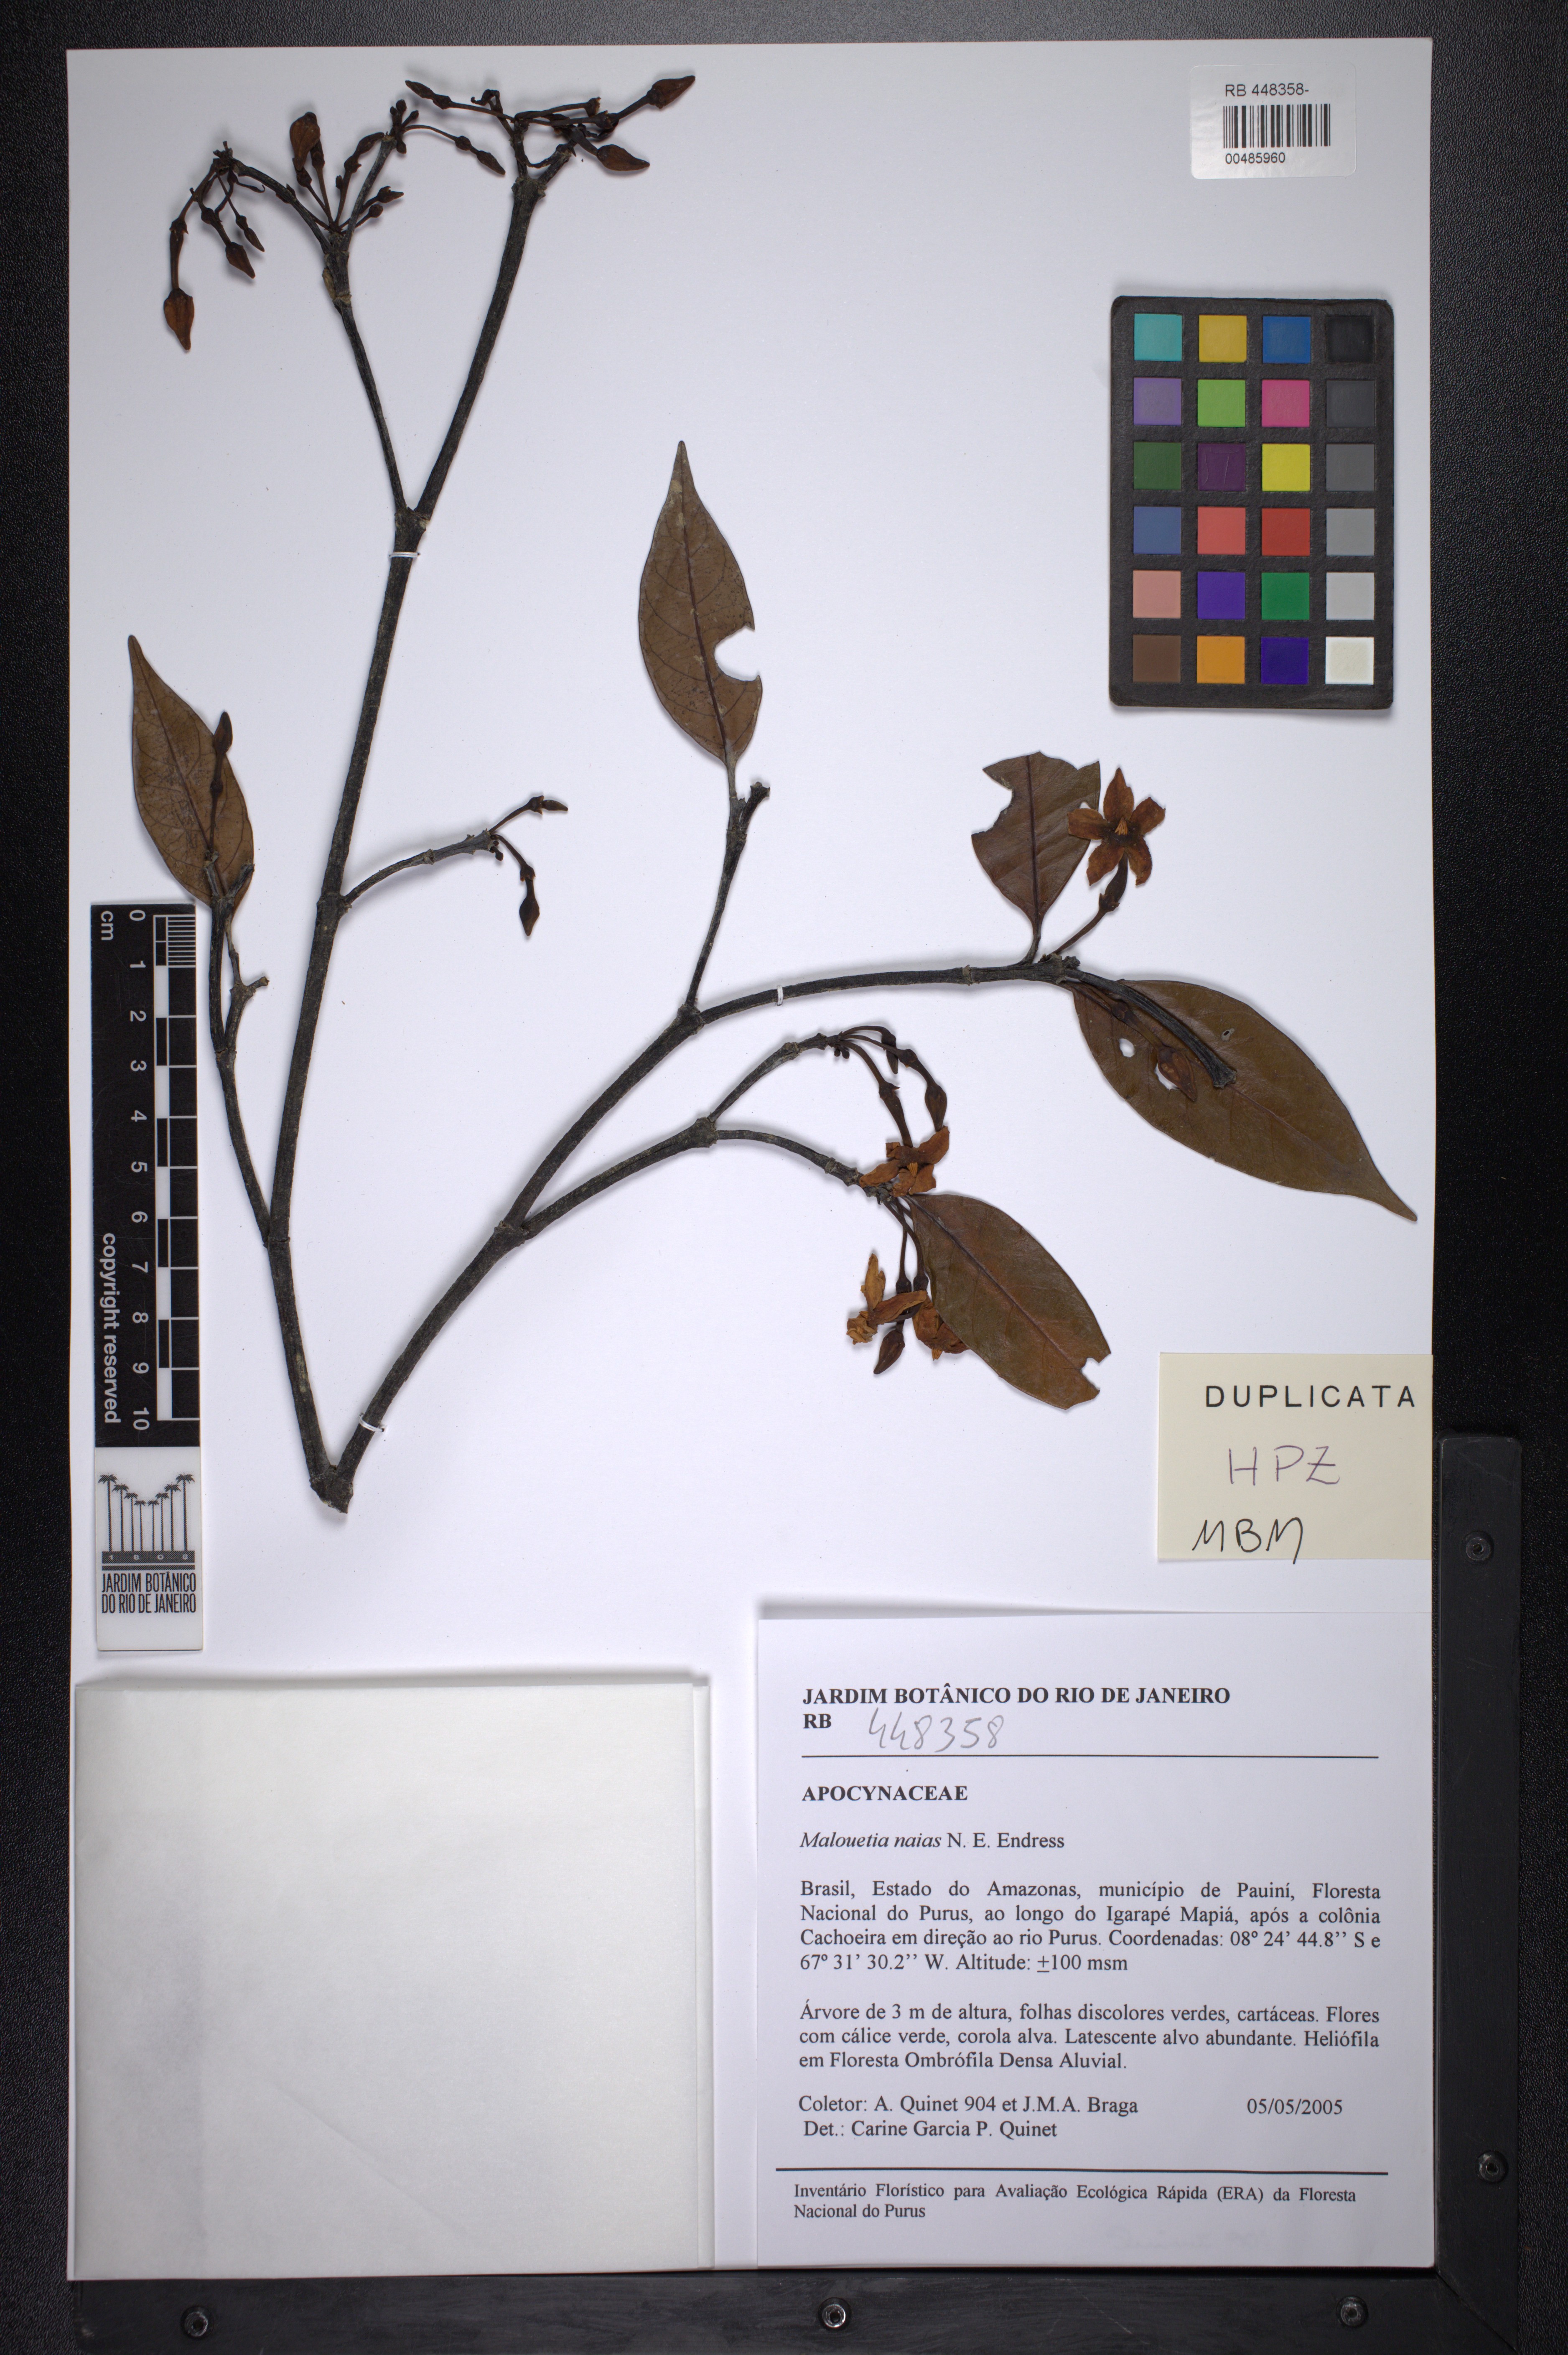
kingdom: Plantae
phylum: Tracheophyta
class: Magnoliopsida
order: Gentianales
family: Apocynaceae
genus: Malouetia
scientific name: Malouetia naias
